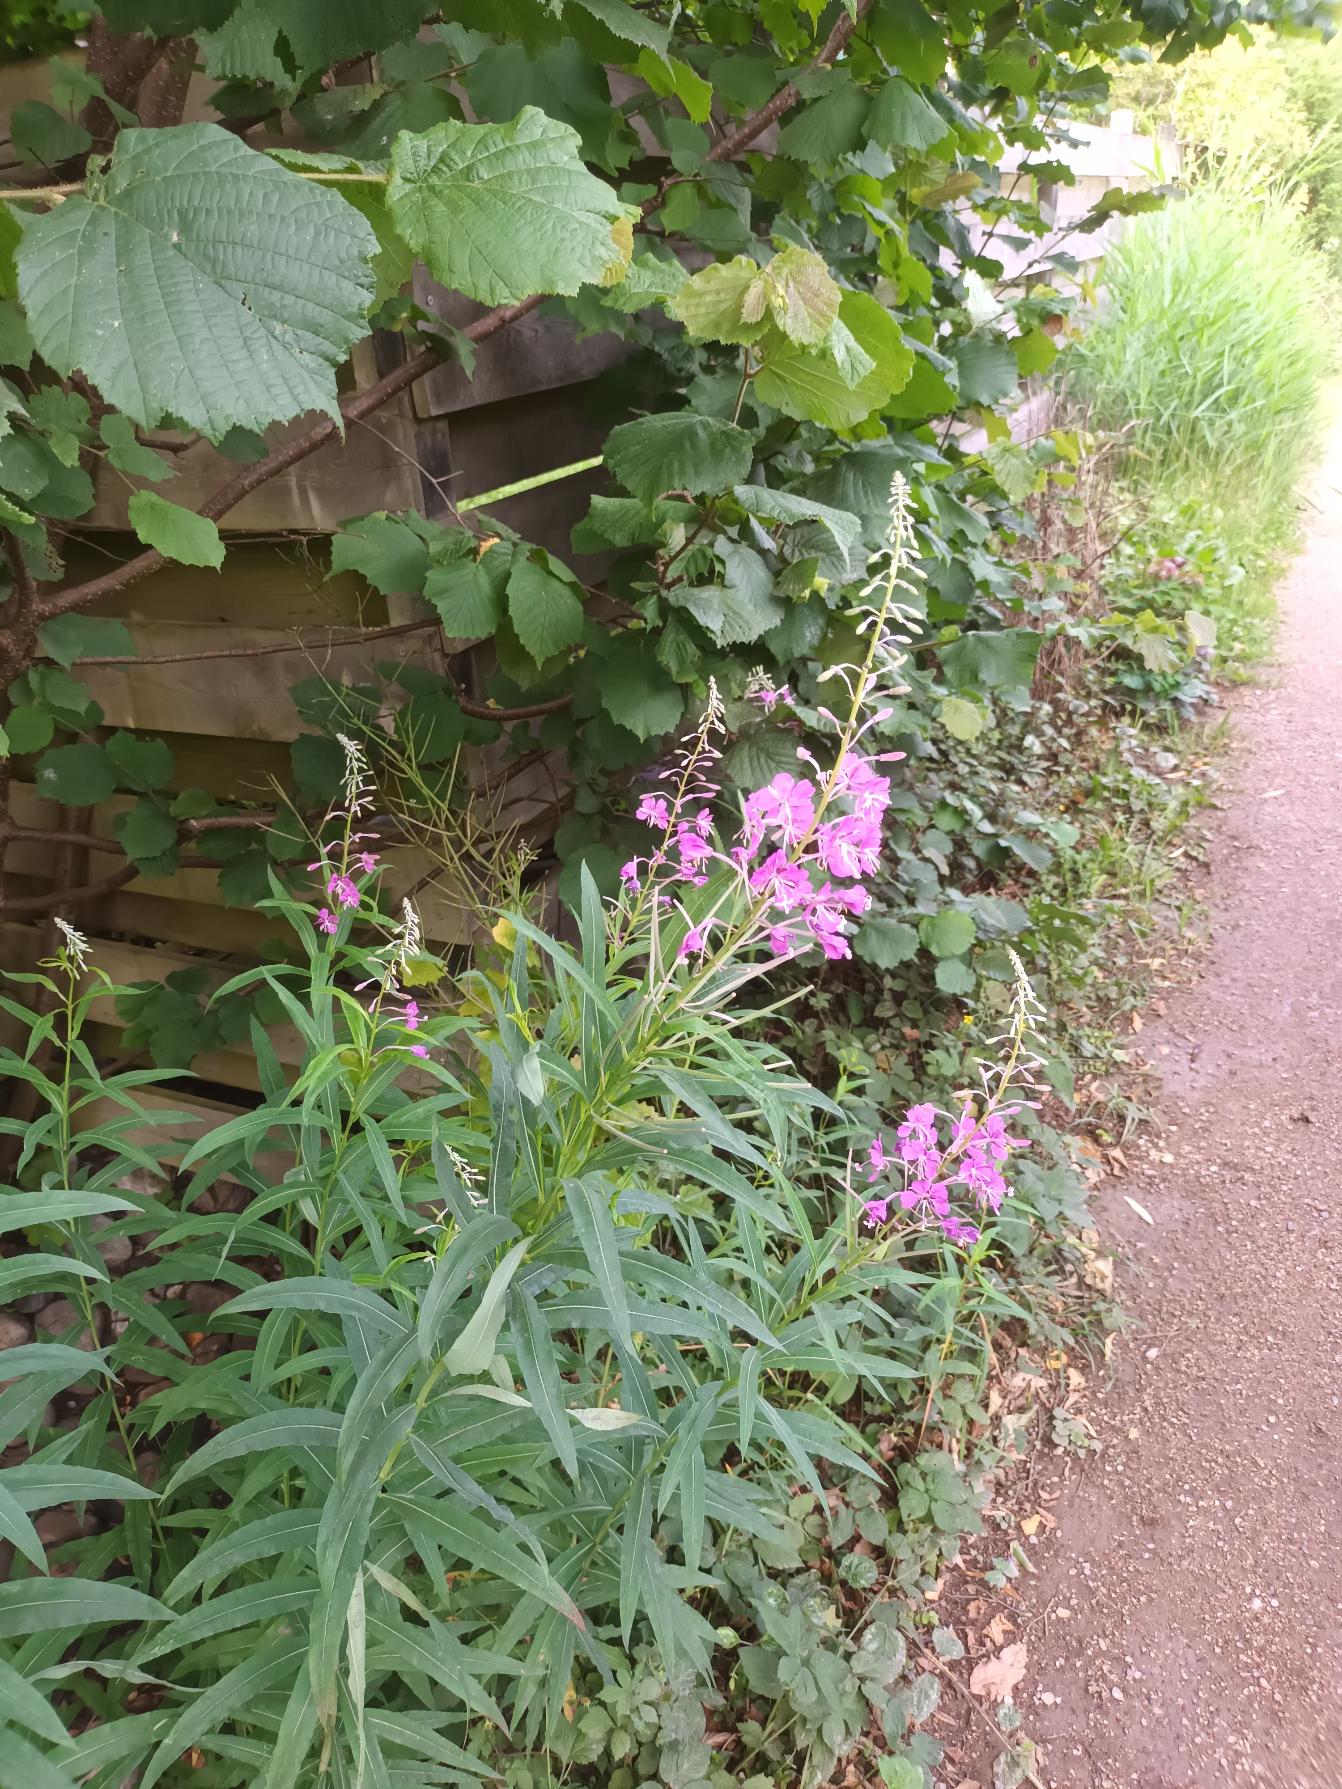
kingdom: Plantae
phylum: Tracheophyta
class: Magnoliopsida
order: Myrtales
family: Onagraceae
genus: Chamaenerion
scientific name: Chamaenerion angustifolium
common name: Gederams
